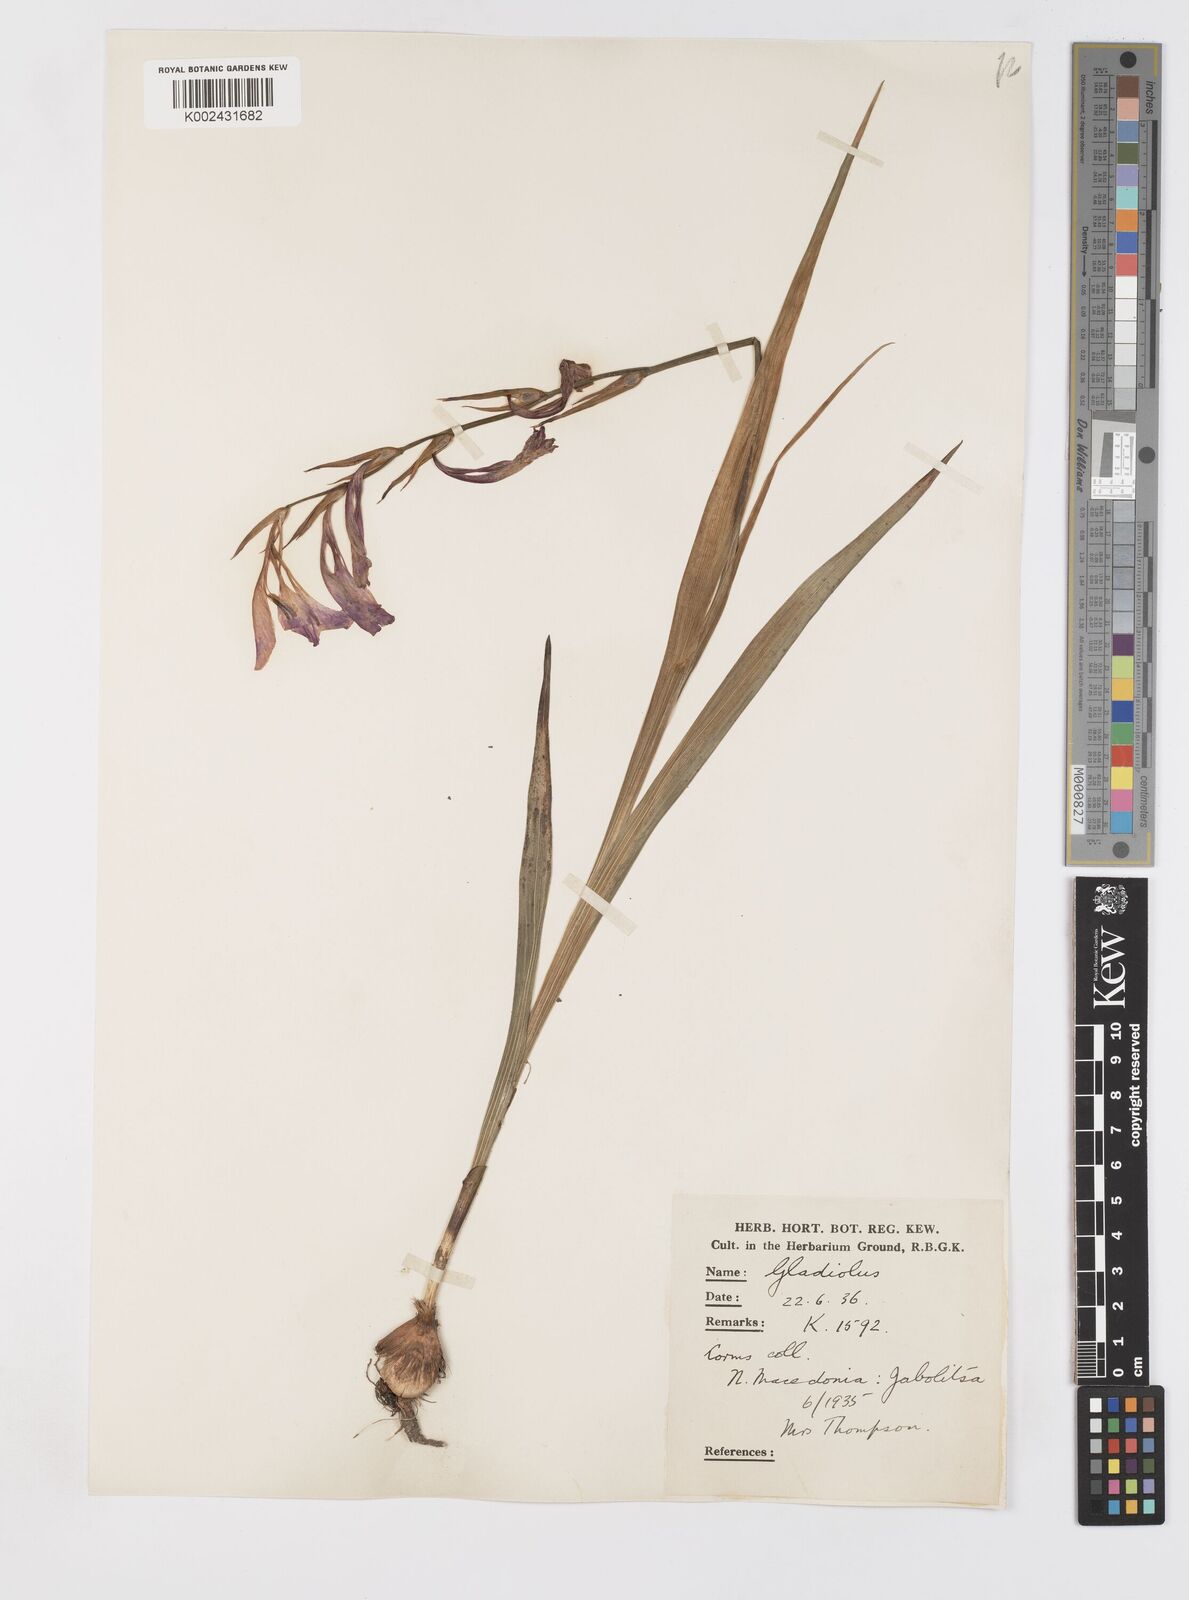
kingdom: Plantae
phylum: Tracheophyta
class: Liliopsida
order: Asparagales
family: Iridaceae
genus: Gladiolus
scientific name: Gladiolus illyricus
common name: Wild gladiolus
